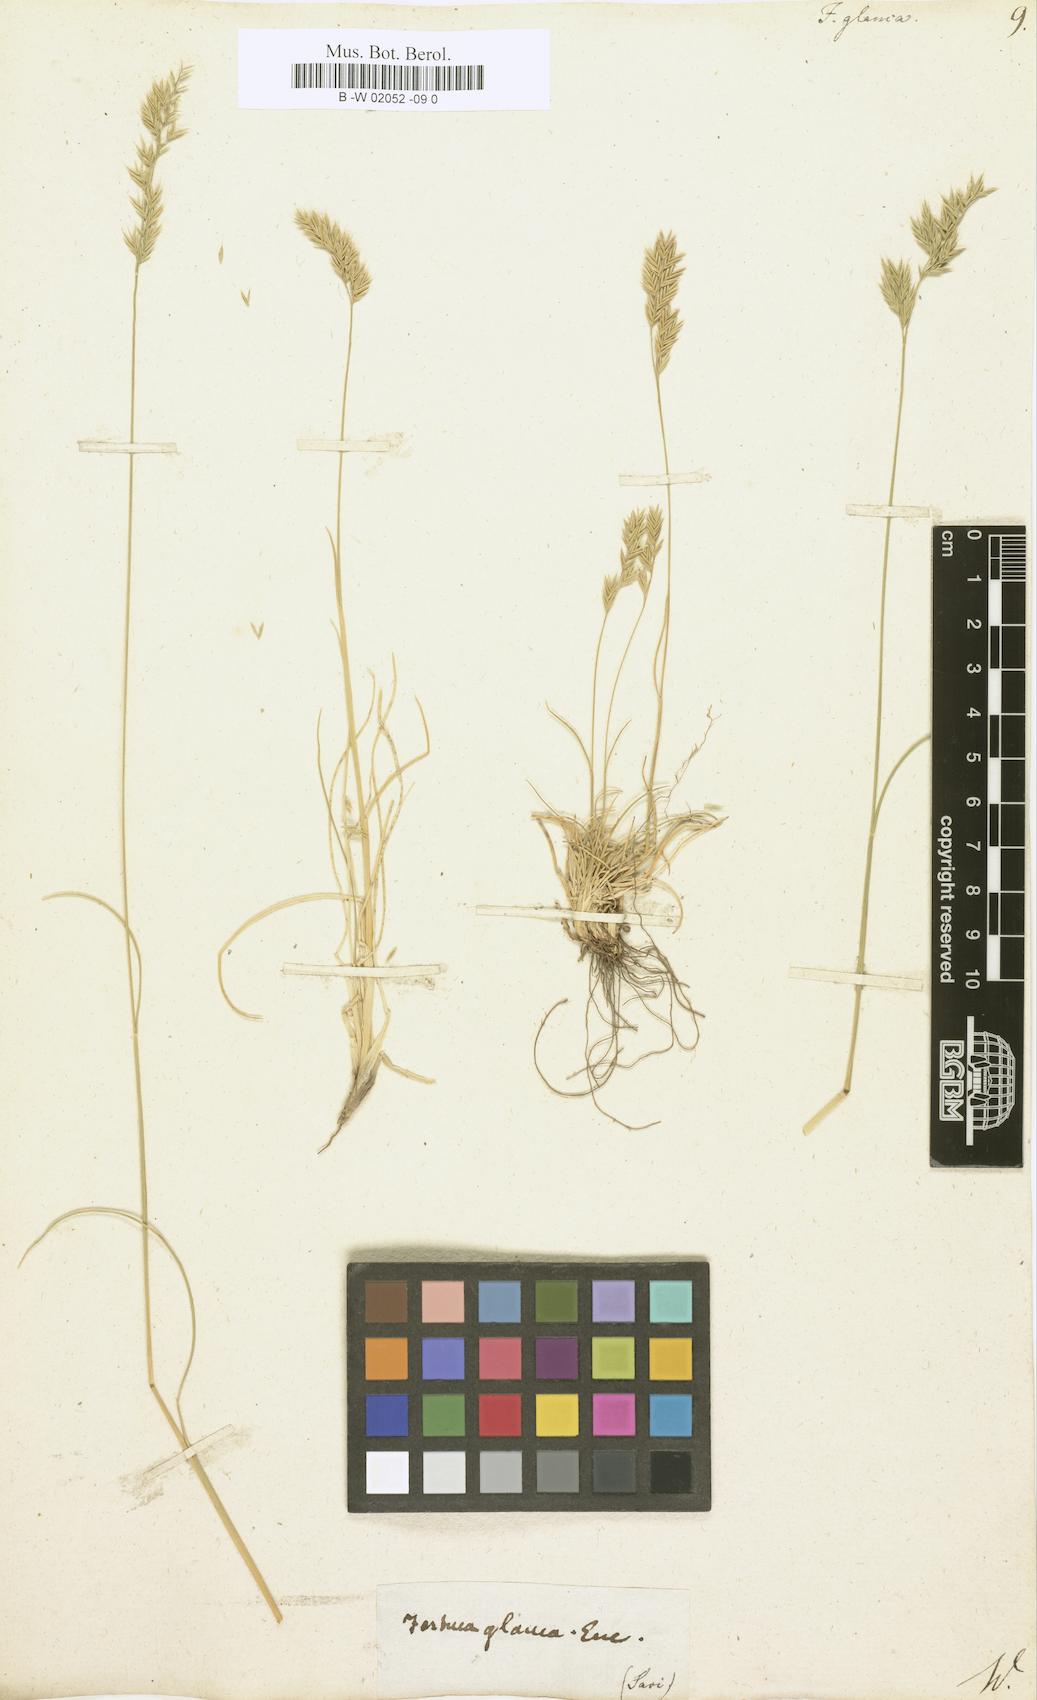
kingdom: Plantae
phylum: Tracheophyta
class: Liliopsida
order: Poales
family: Poaceae
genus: Festuca
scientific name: Festuca glauca
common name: Blue fescue
